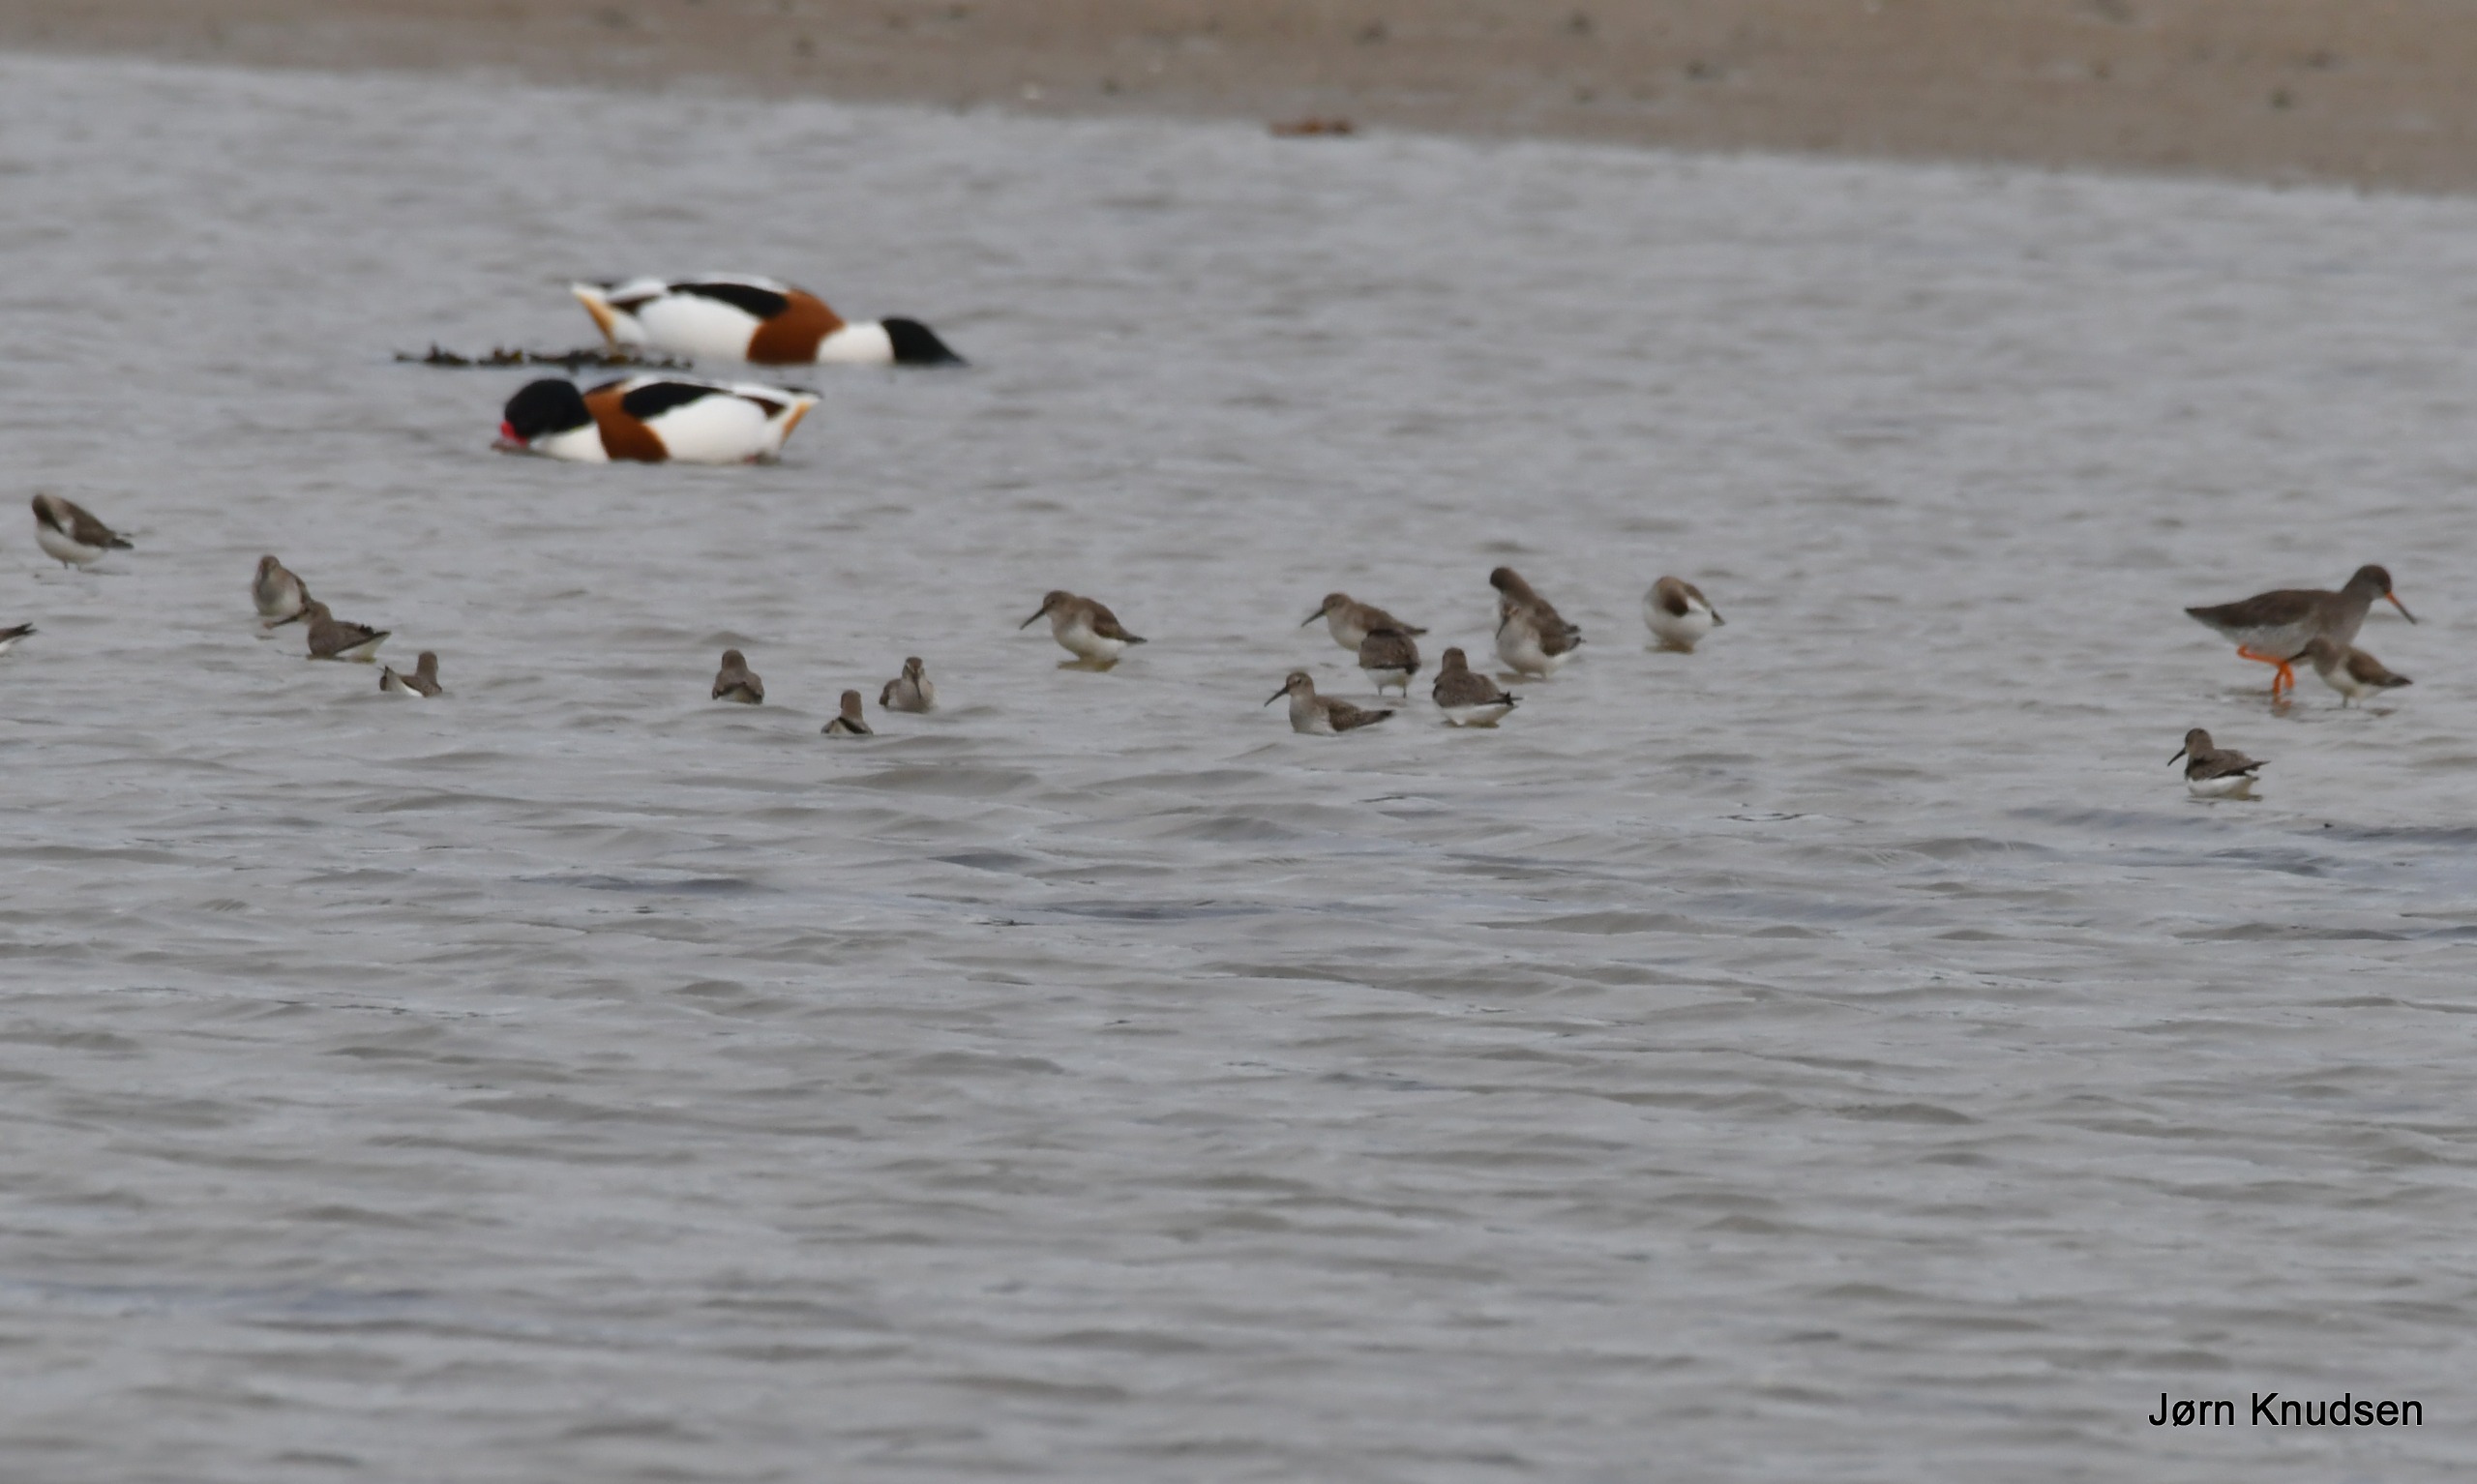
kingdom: Animalia
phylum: Chordata
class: Aves
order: Charadriiformes
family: Scolopacidae
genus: Tringa
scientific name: Tringa totanus
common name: Rødben
